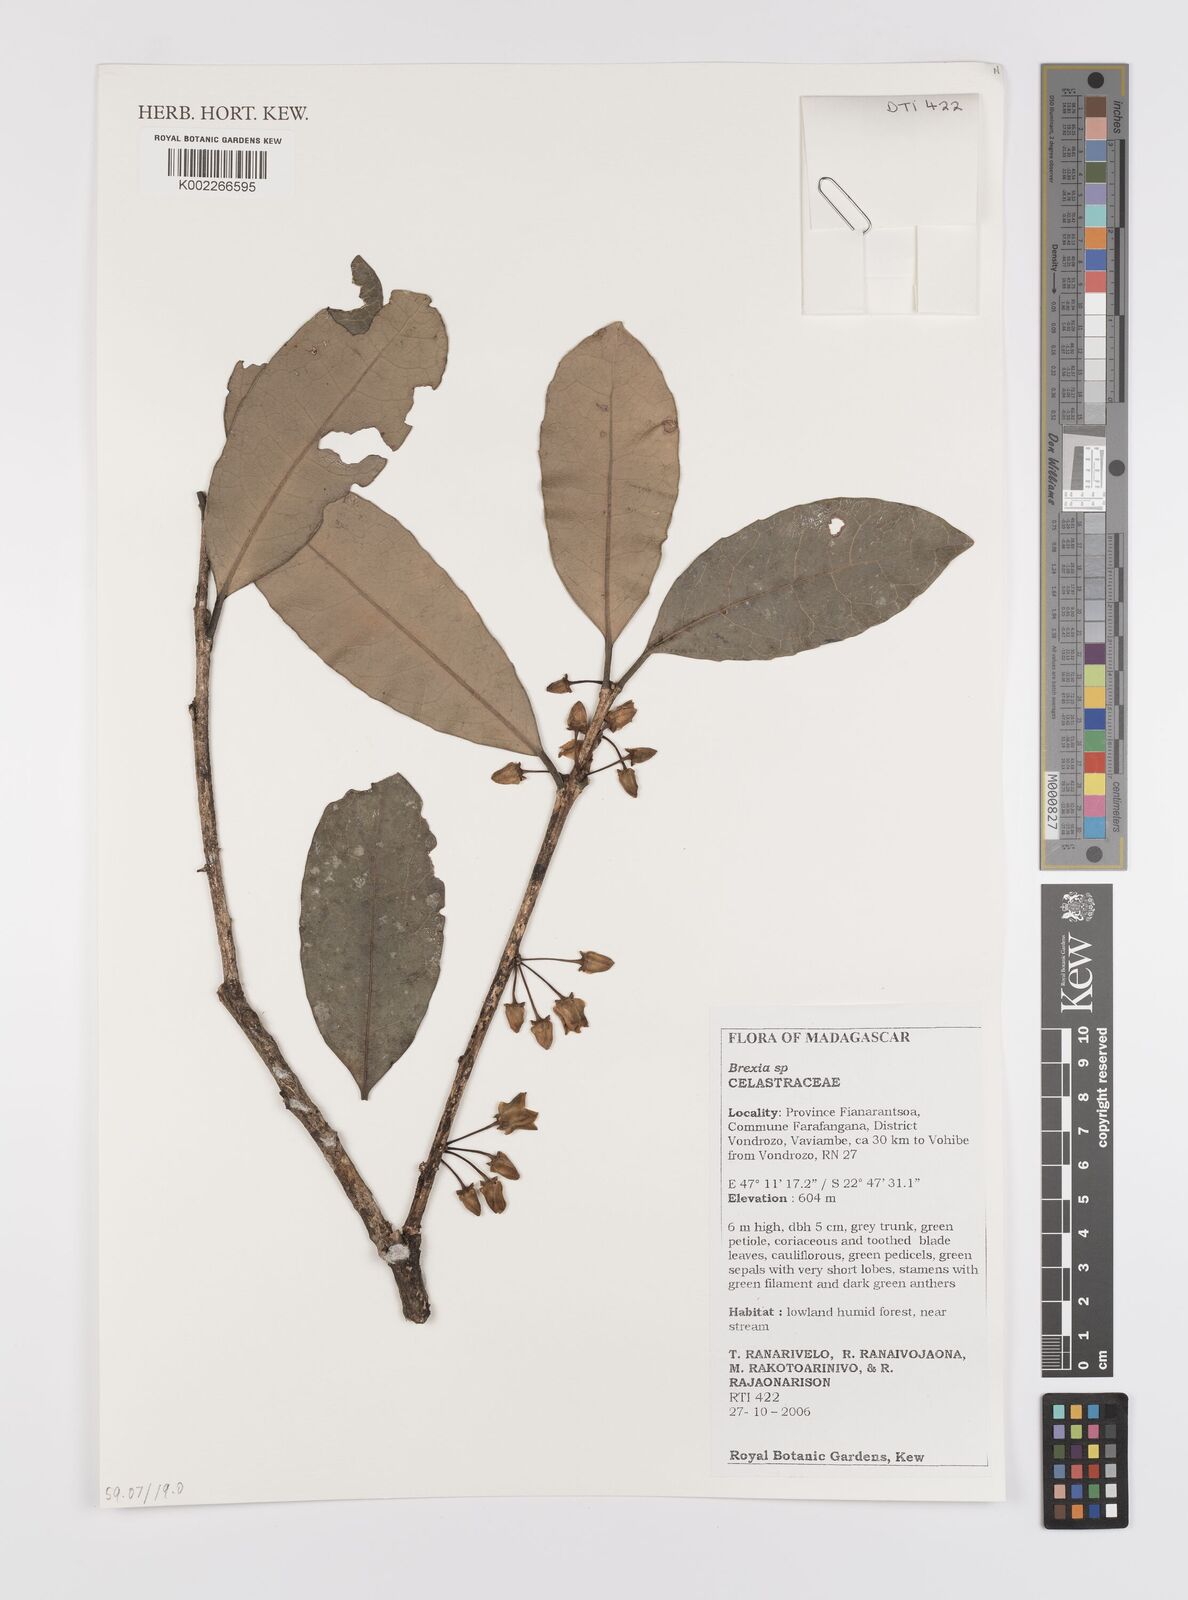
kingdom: Plantae
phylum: Tracheophyta
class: Magnoliopsida
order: Celastrales
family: Celastraceae
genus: Brexia
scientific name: Brexia
